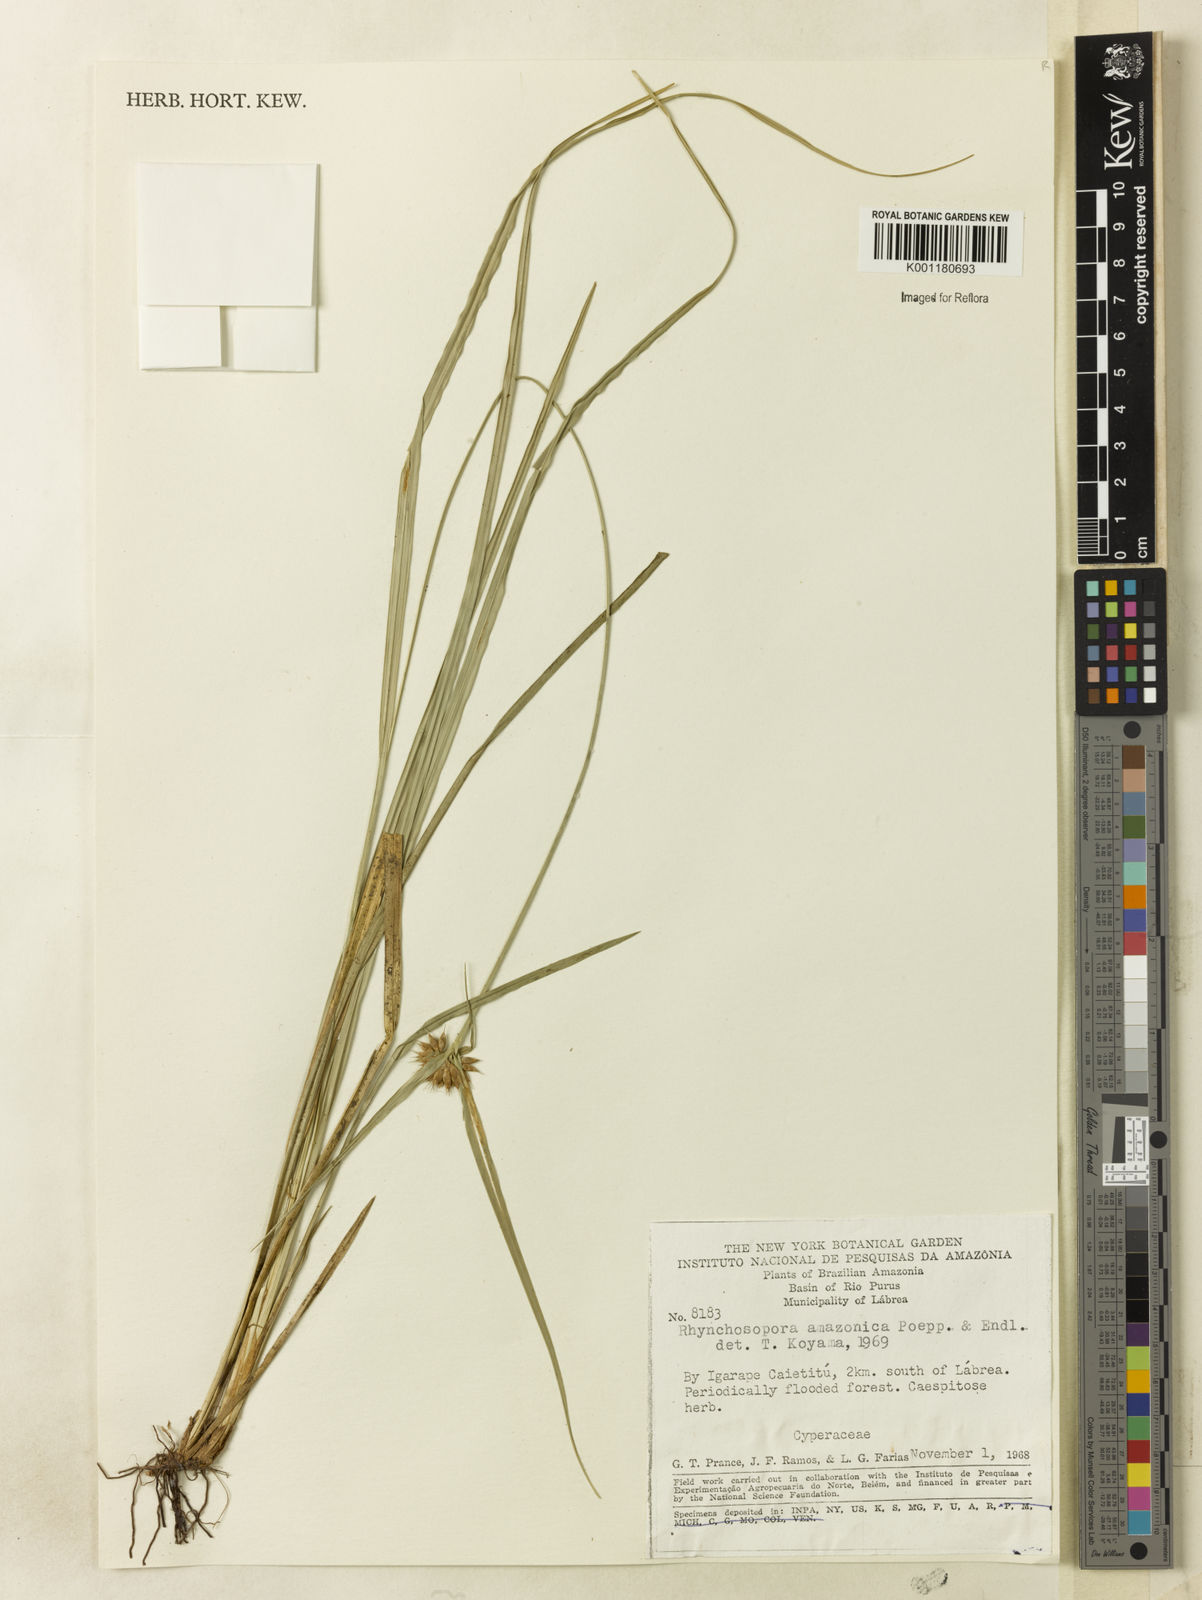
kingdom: Plantae
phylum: Tracheophyta
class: Liliopsida
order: Poales
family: Cyperaceae
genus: Rhynchospora
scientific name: Rhynchospora amazonica
